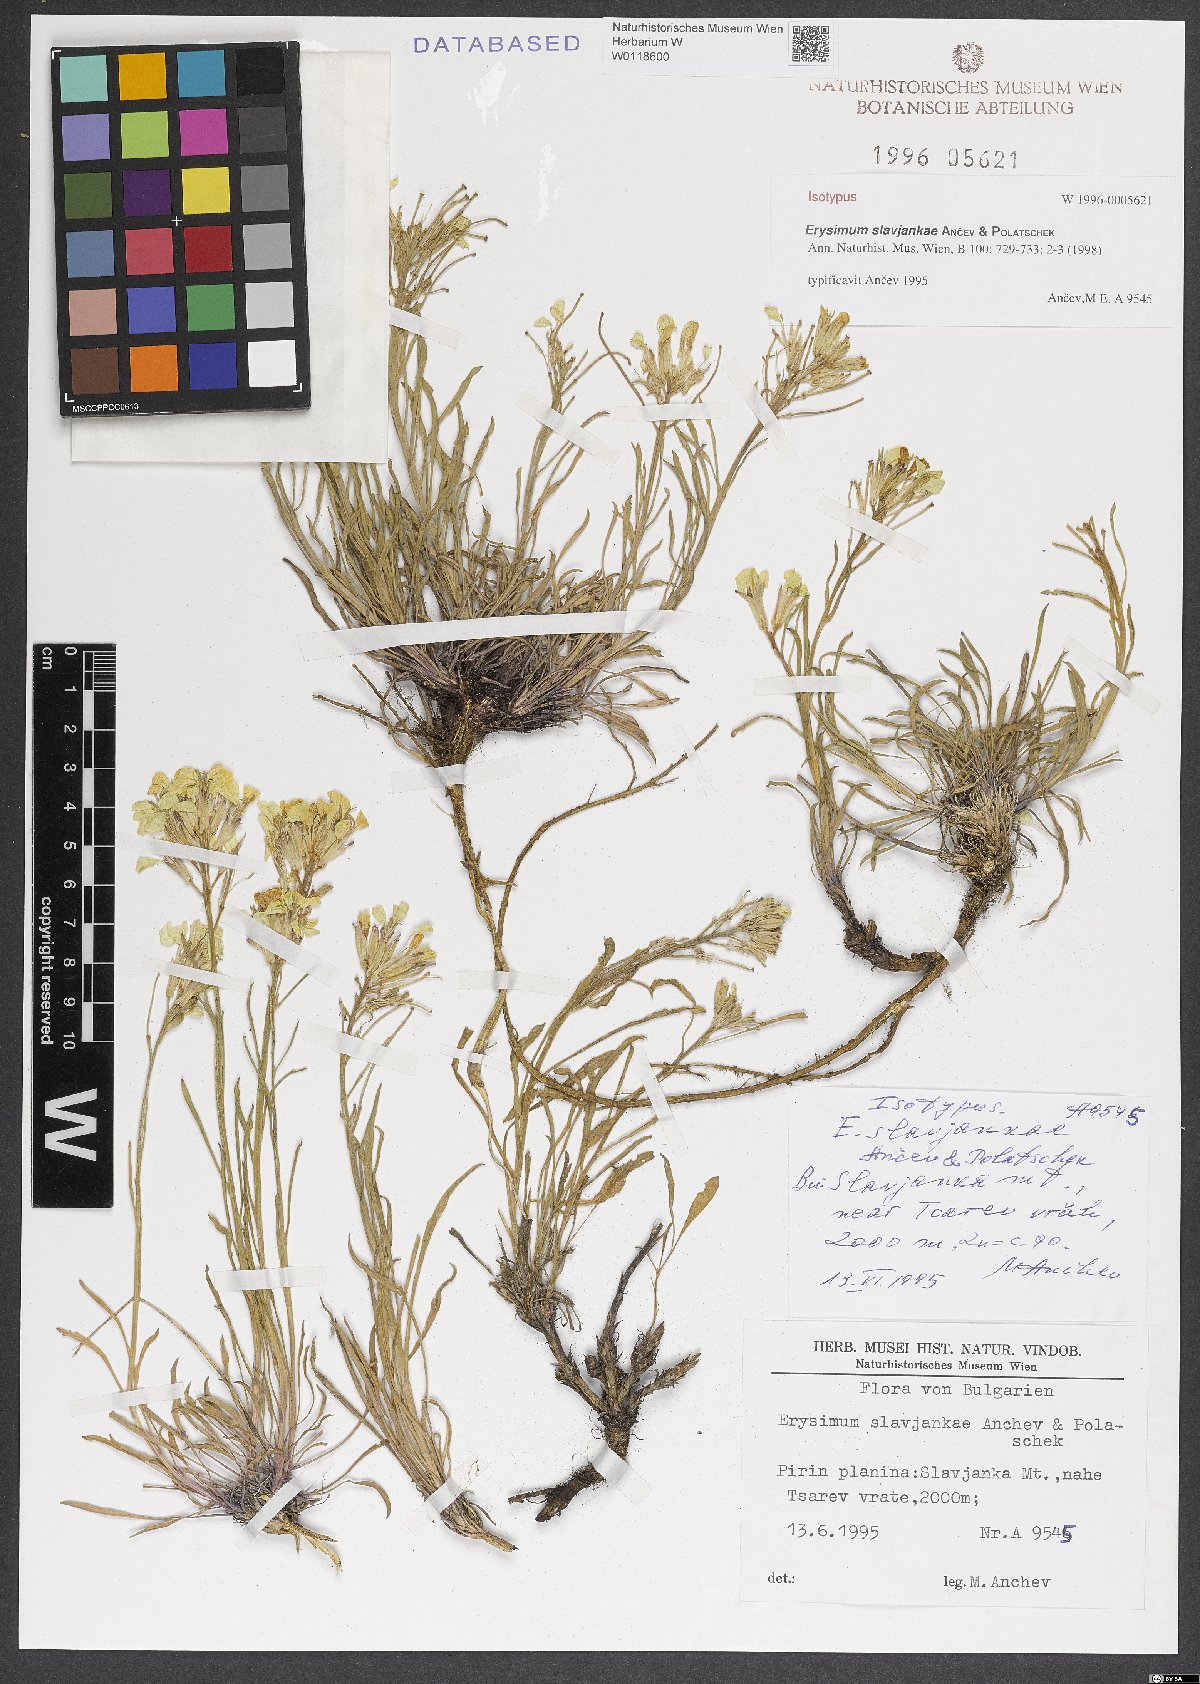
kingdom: Plantae
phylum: Tracheophyta
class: Magnoliopsida
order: Brassicales
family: Brassicaceae
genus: Erysimum
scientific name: Erysimum slavjankae
